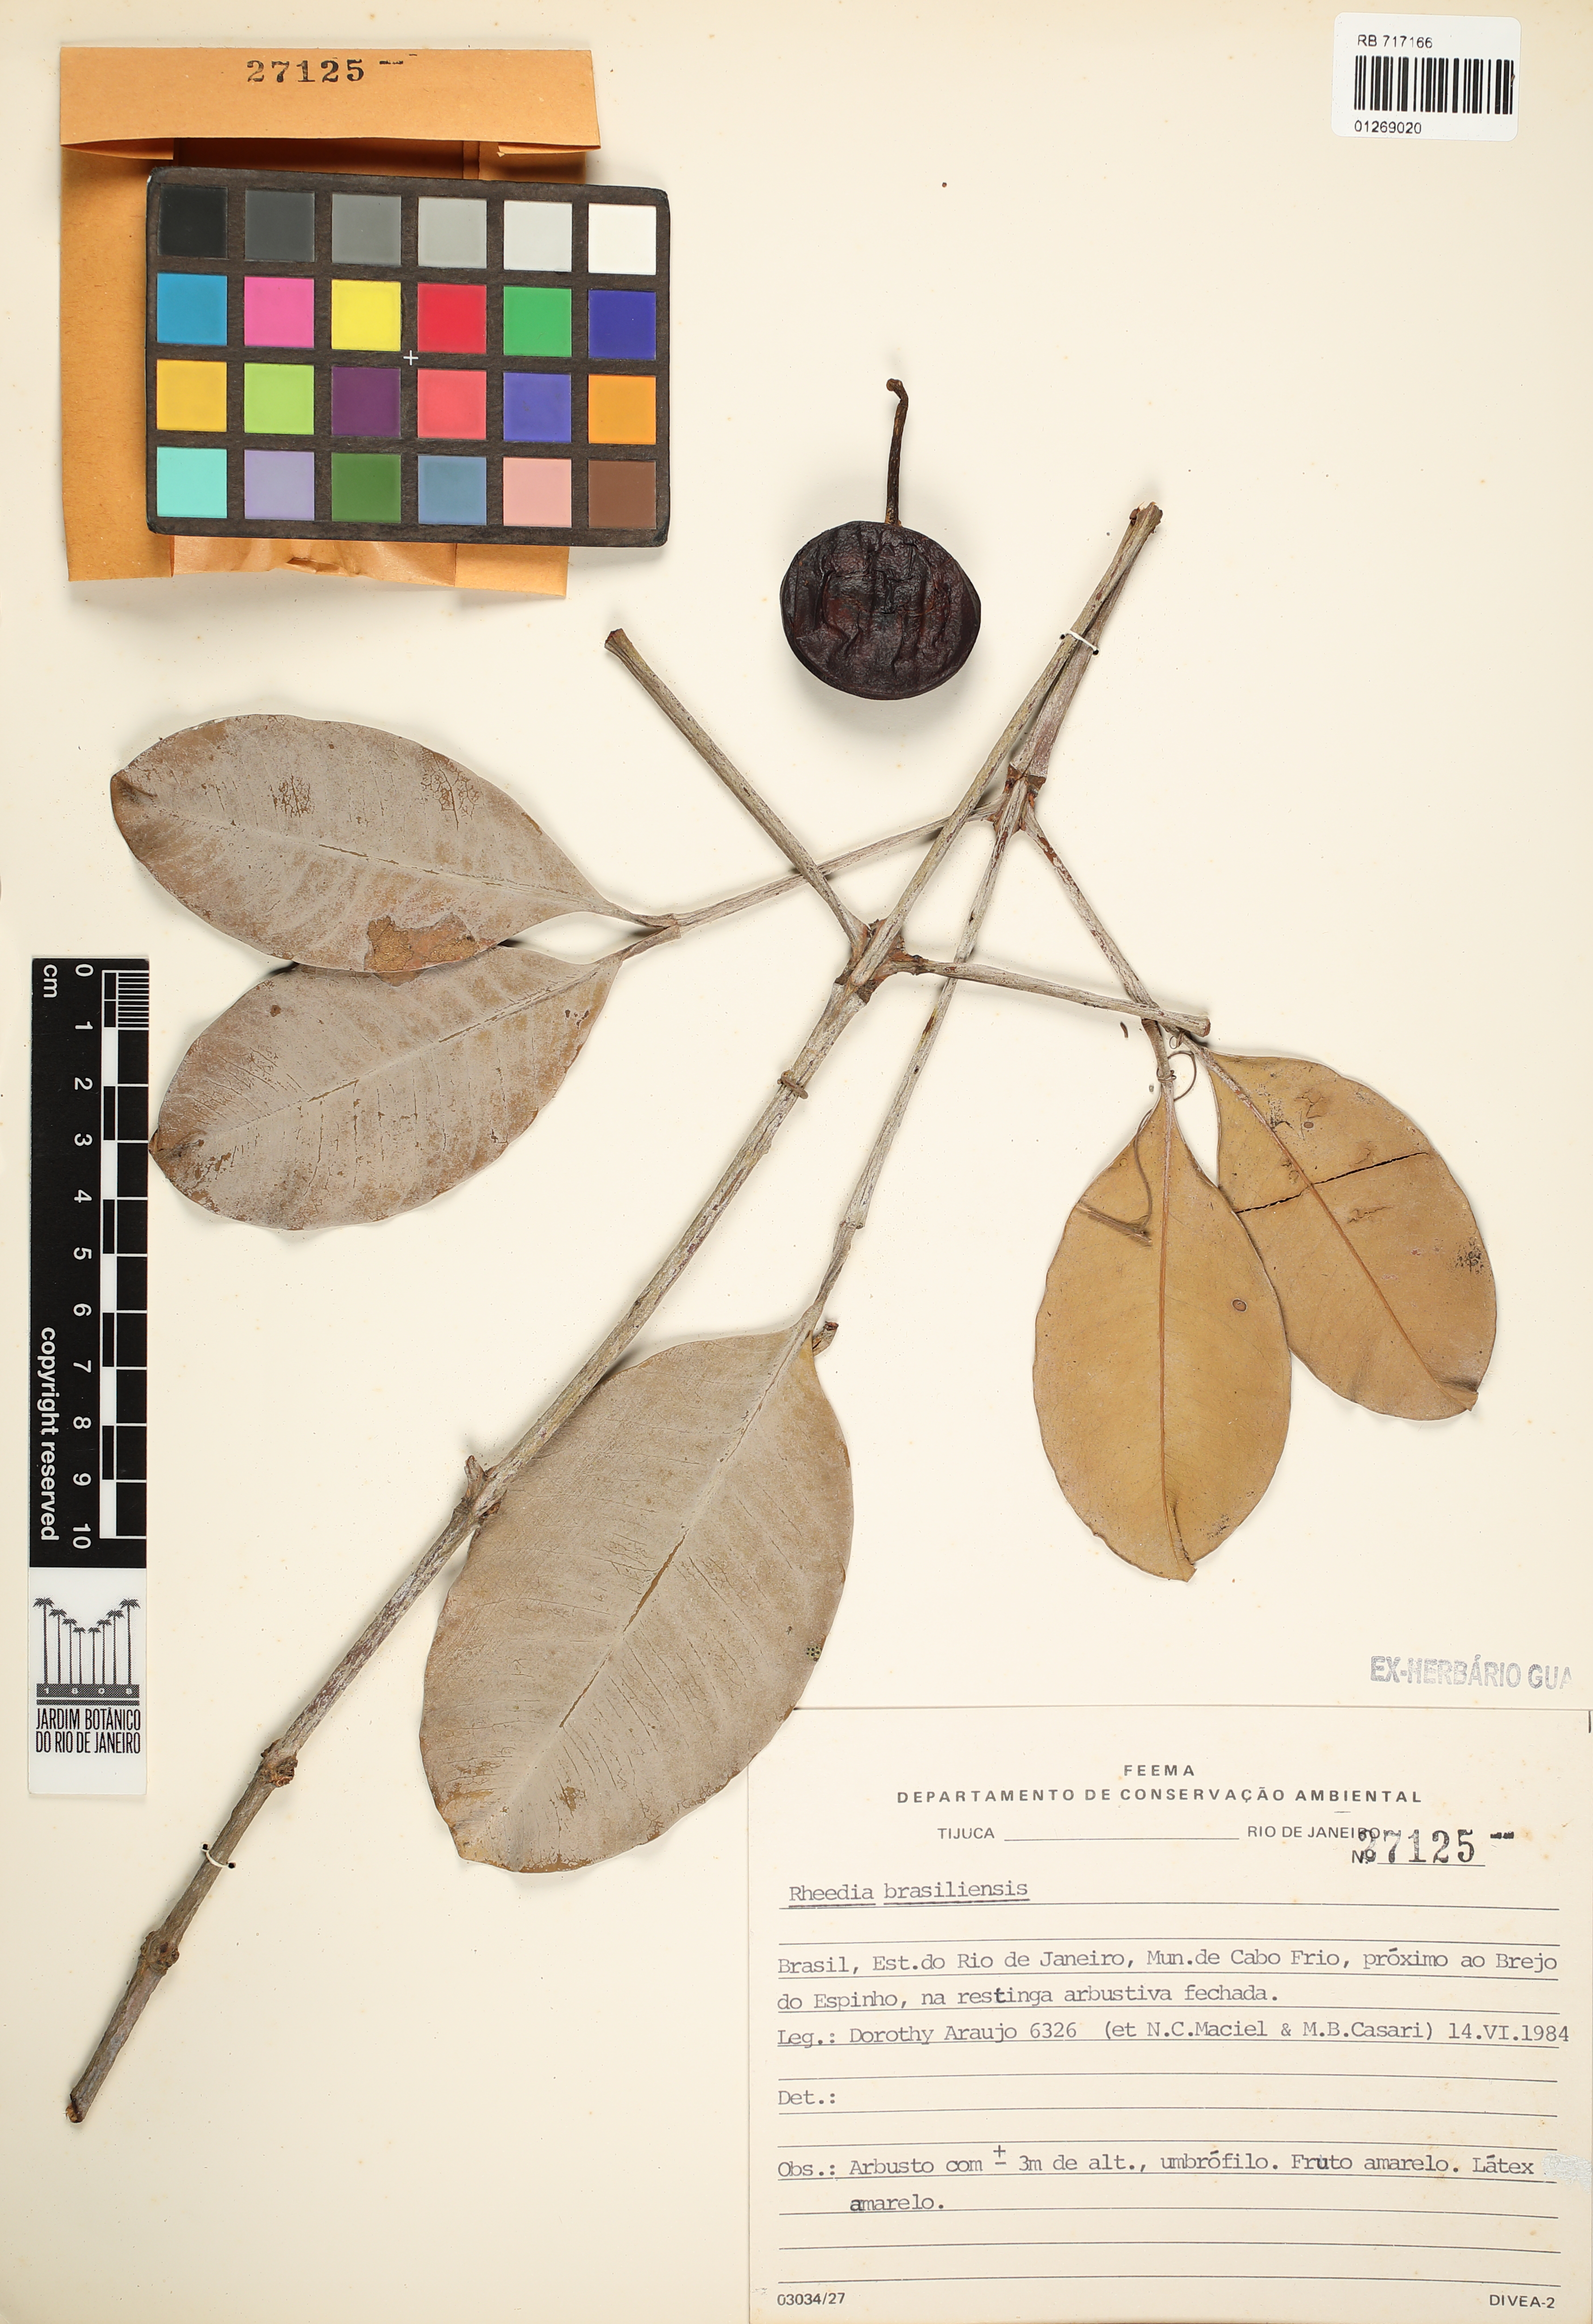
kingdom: Plantae
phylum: Tracheophyta
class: Magnoliopsida
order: Malpighiales
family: Clusiaceae
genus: Garcinia
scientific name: Garcinia brasiliensis
